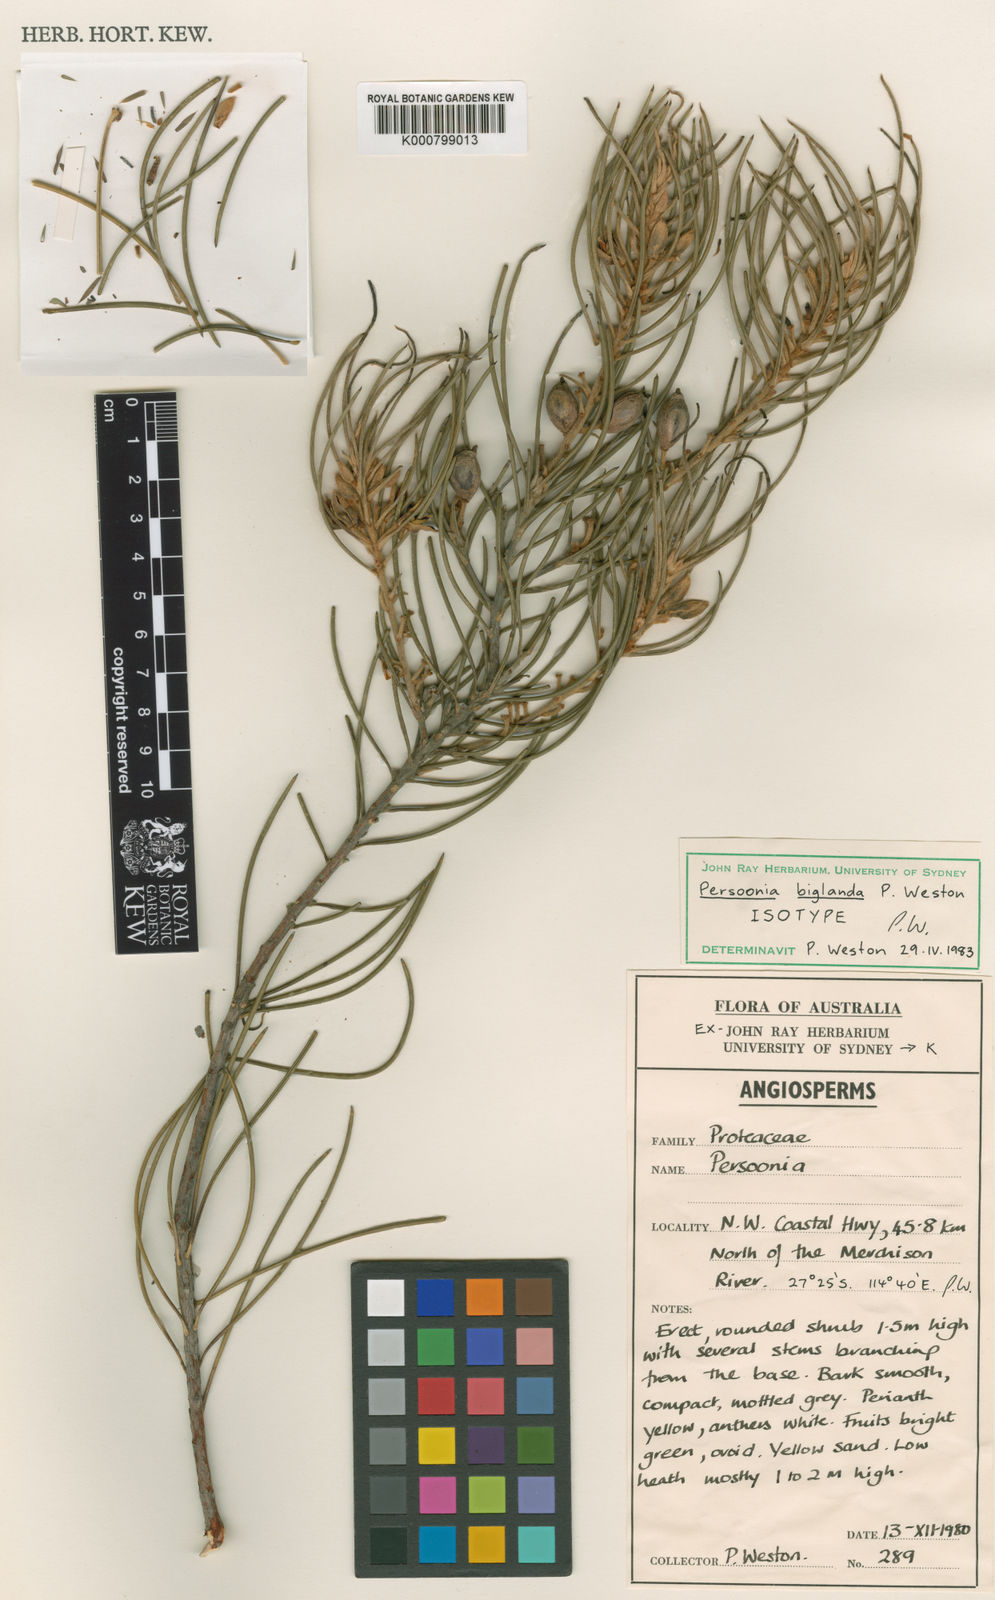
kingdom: Plantae
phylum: Tracheophyta
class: Magnoliopsida
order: Proteales
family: Proteaceae
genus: Persoonia
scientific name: Persoonia biglandulosa
